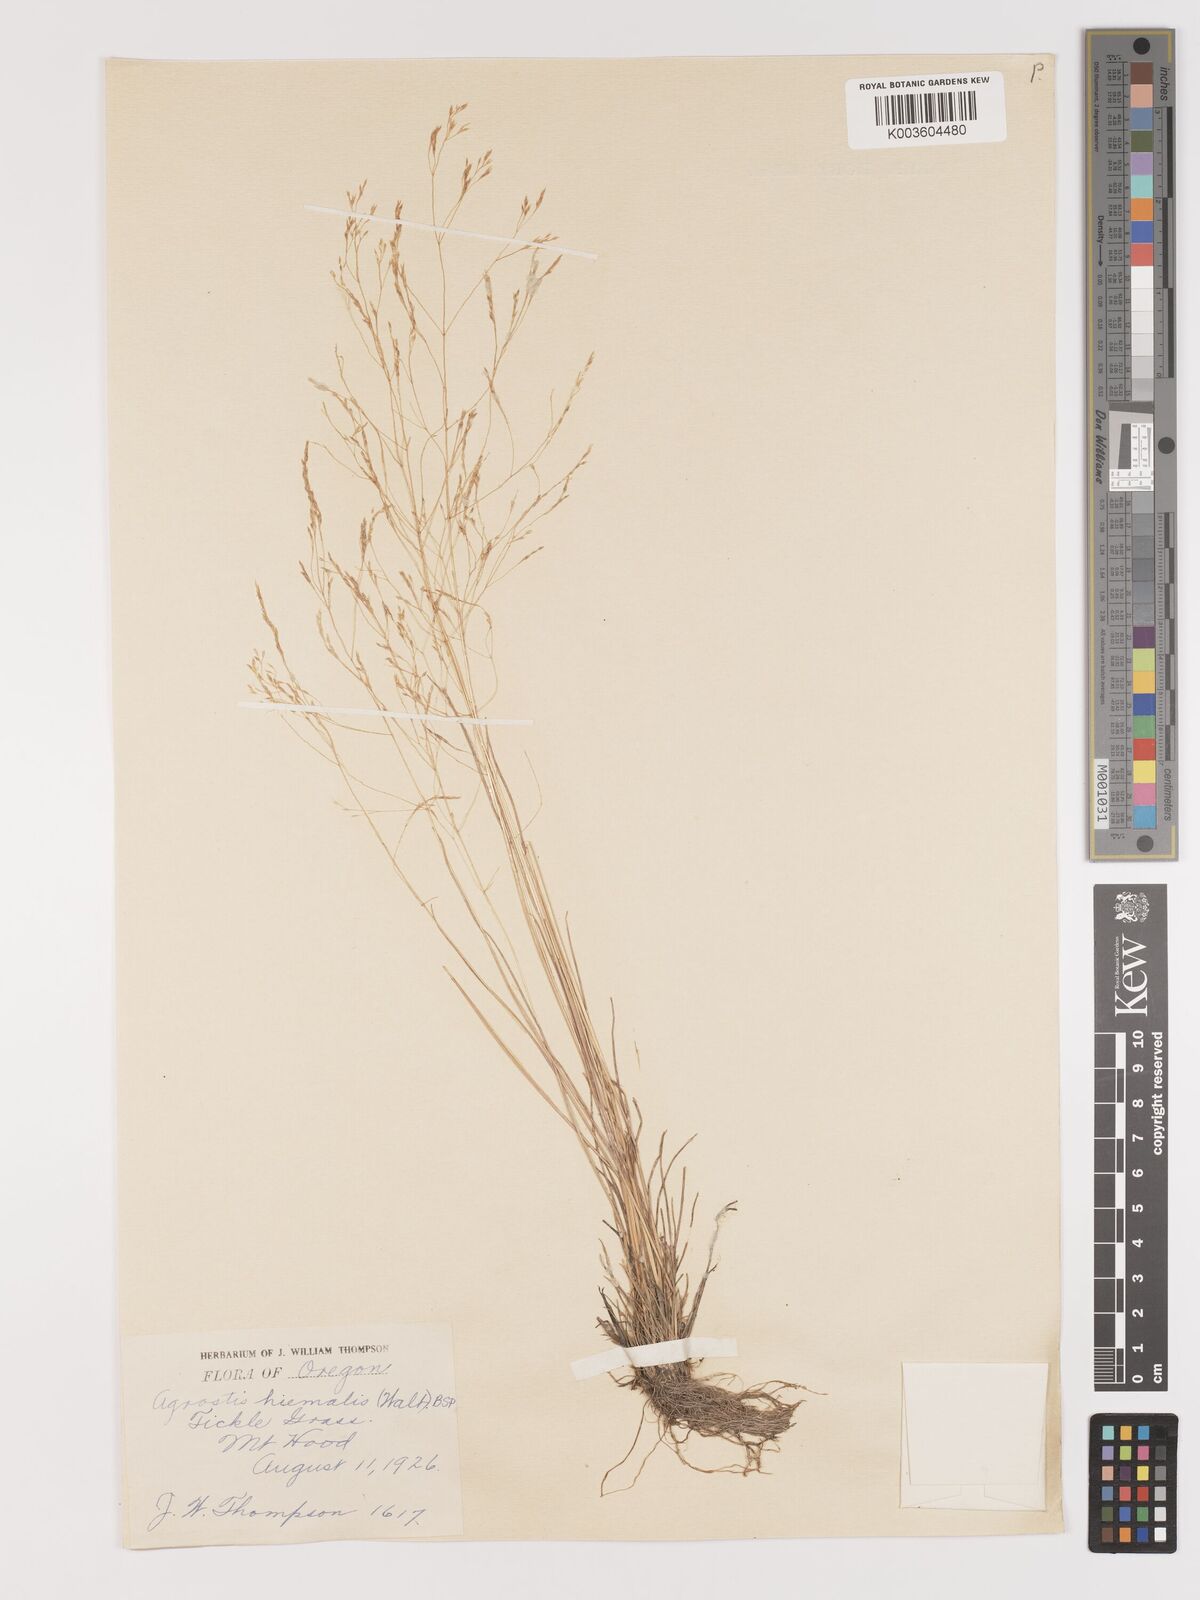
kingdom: Plantae
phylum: Tracheophyta
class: Liliopsida
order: Poales
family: Poaceae
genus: Agrostis
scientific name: Agrostis hyemalis
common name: Small bent
